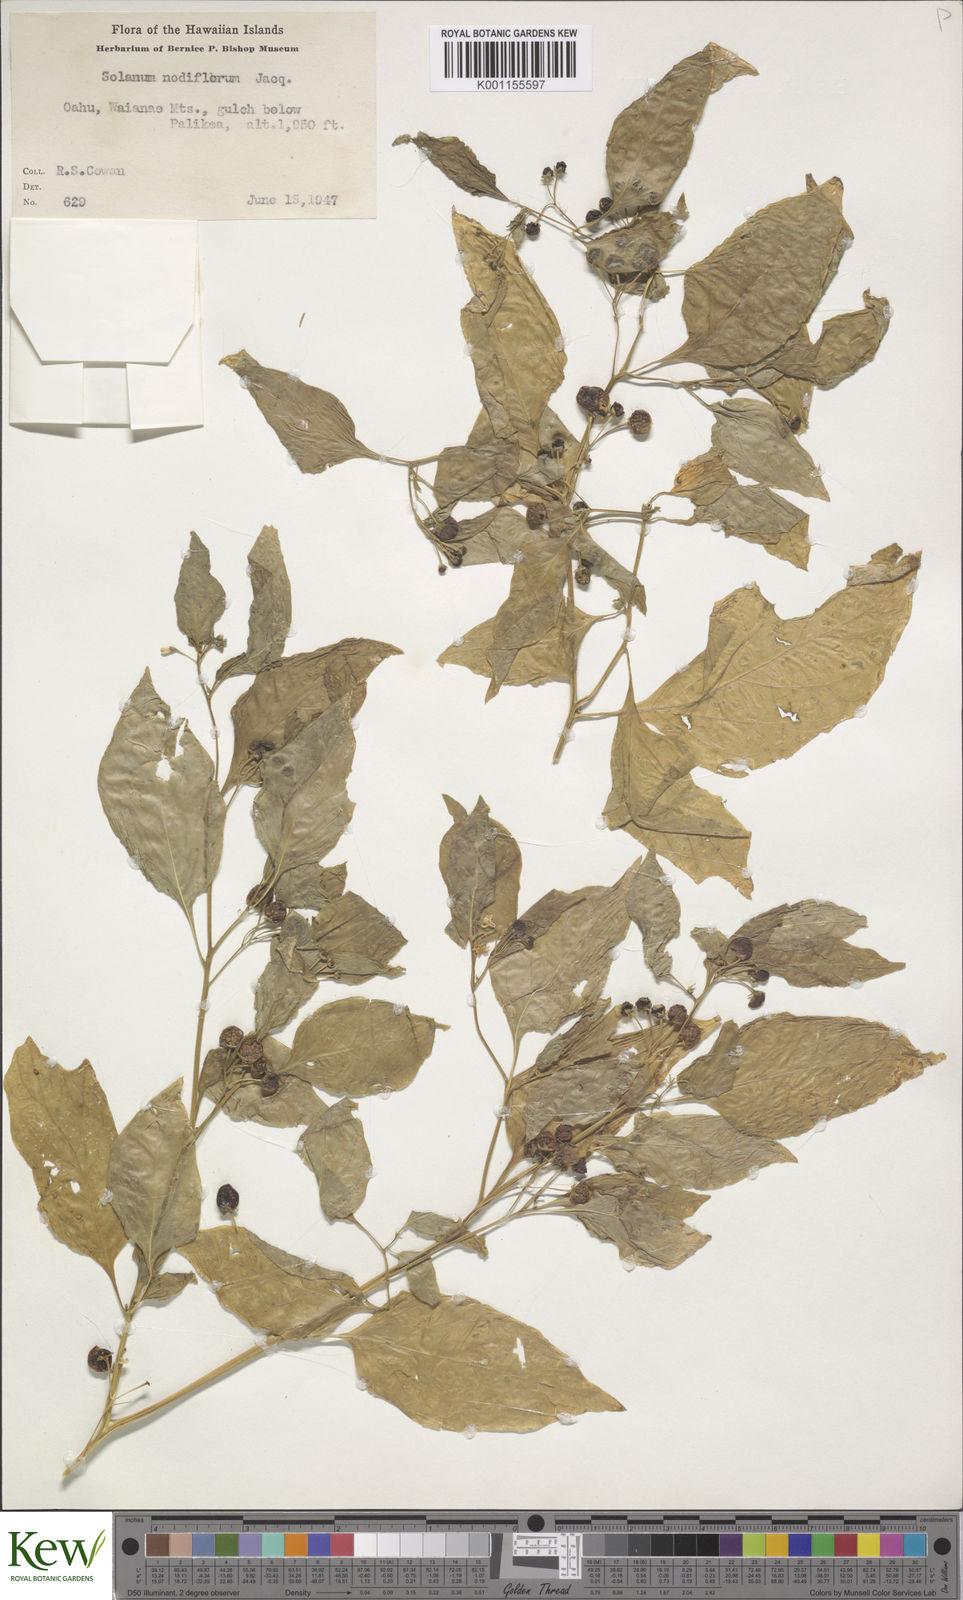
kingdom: Plantae
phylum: Tracheophyta
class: Magnoliopsida
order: Solanales
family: Solanaceae
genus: Solanum
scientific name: Solanum americanum
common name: American black nightshade
